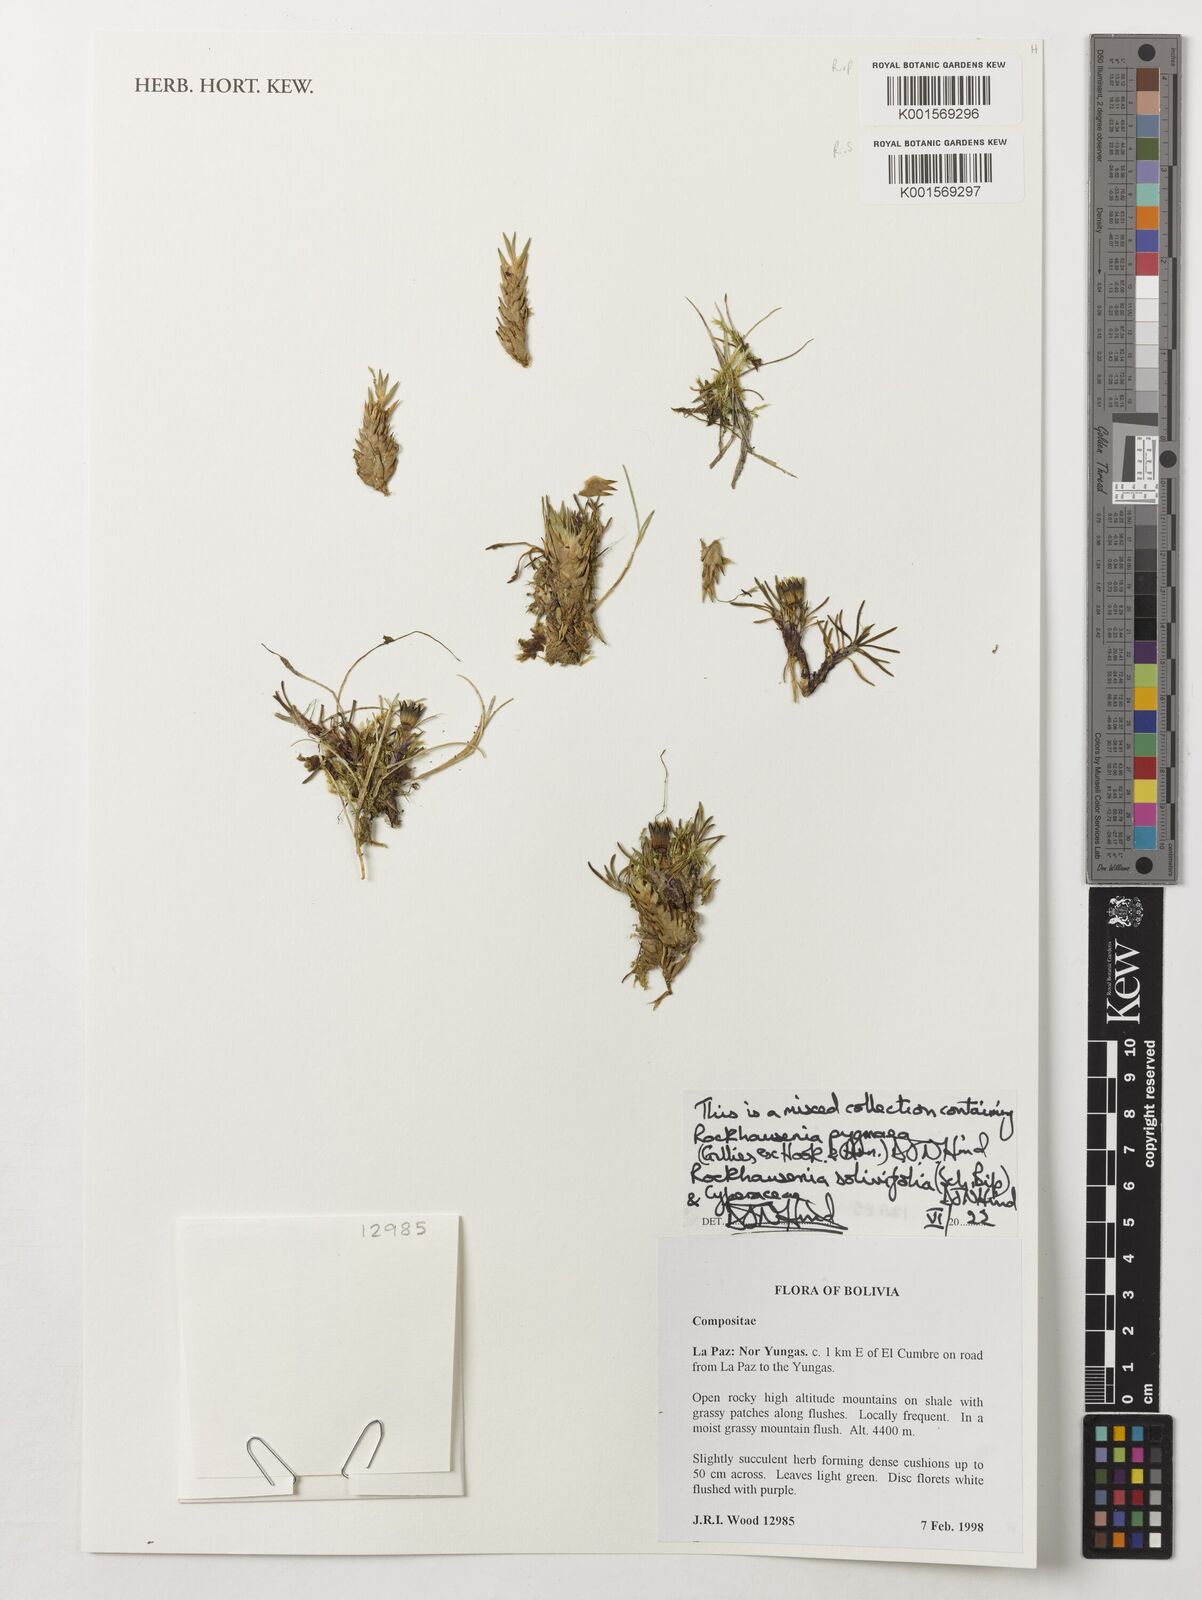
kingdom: Plantae
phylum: Tracheophyta
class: Magnoliopsida
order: Asterales
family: Asteraceae
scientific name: Asteraceae
